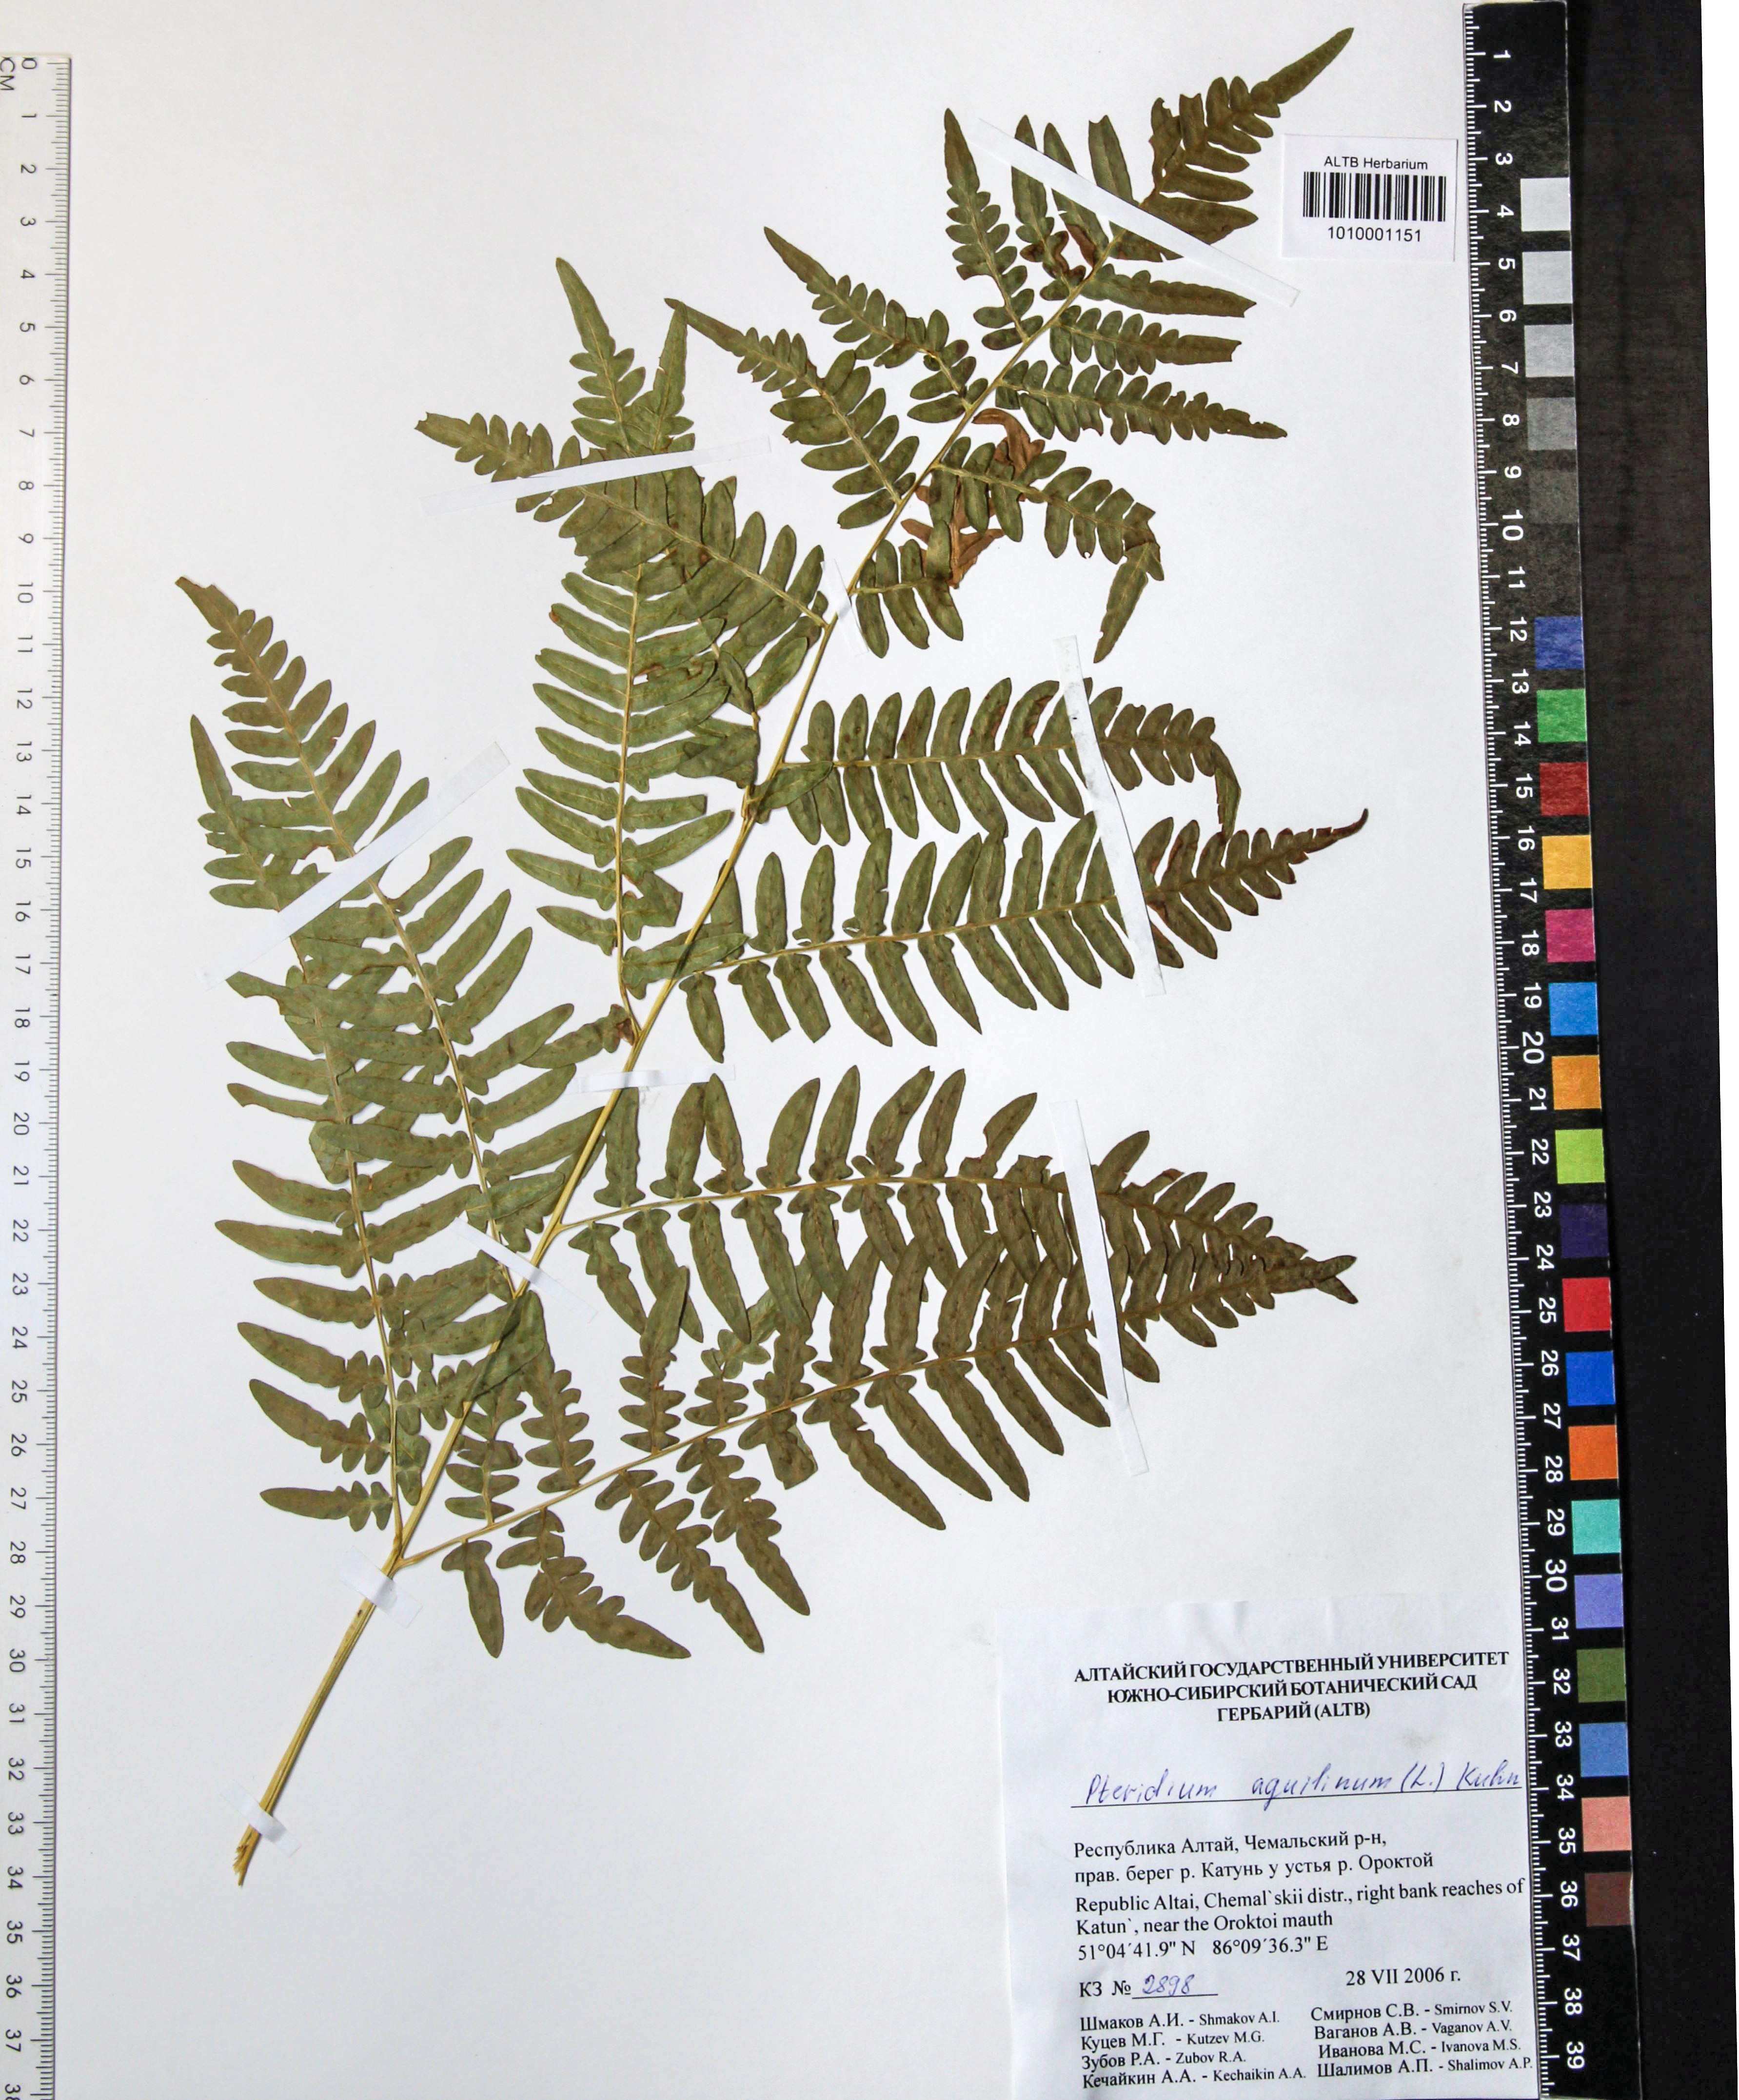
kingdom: Plantae
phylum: Tracheophyta
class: Polypodiopsida
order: Polypodiales
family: Dennstaedtiaceae
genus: Pteridium
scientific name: Pteridium aquilinum
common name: Bracken
